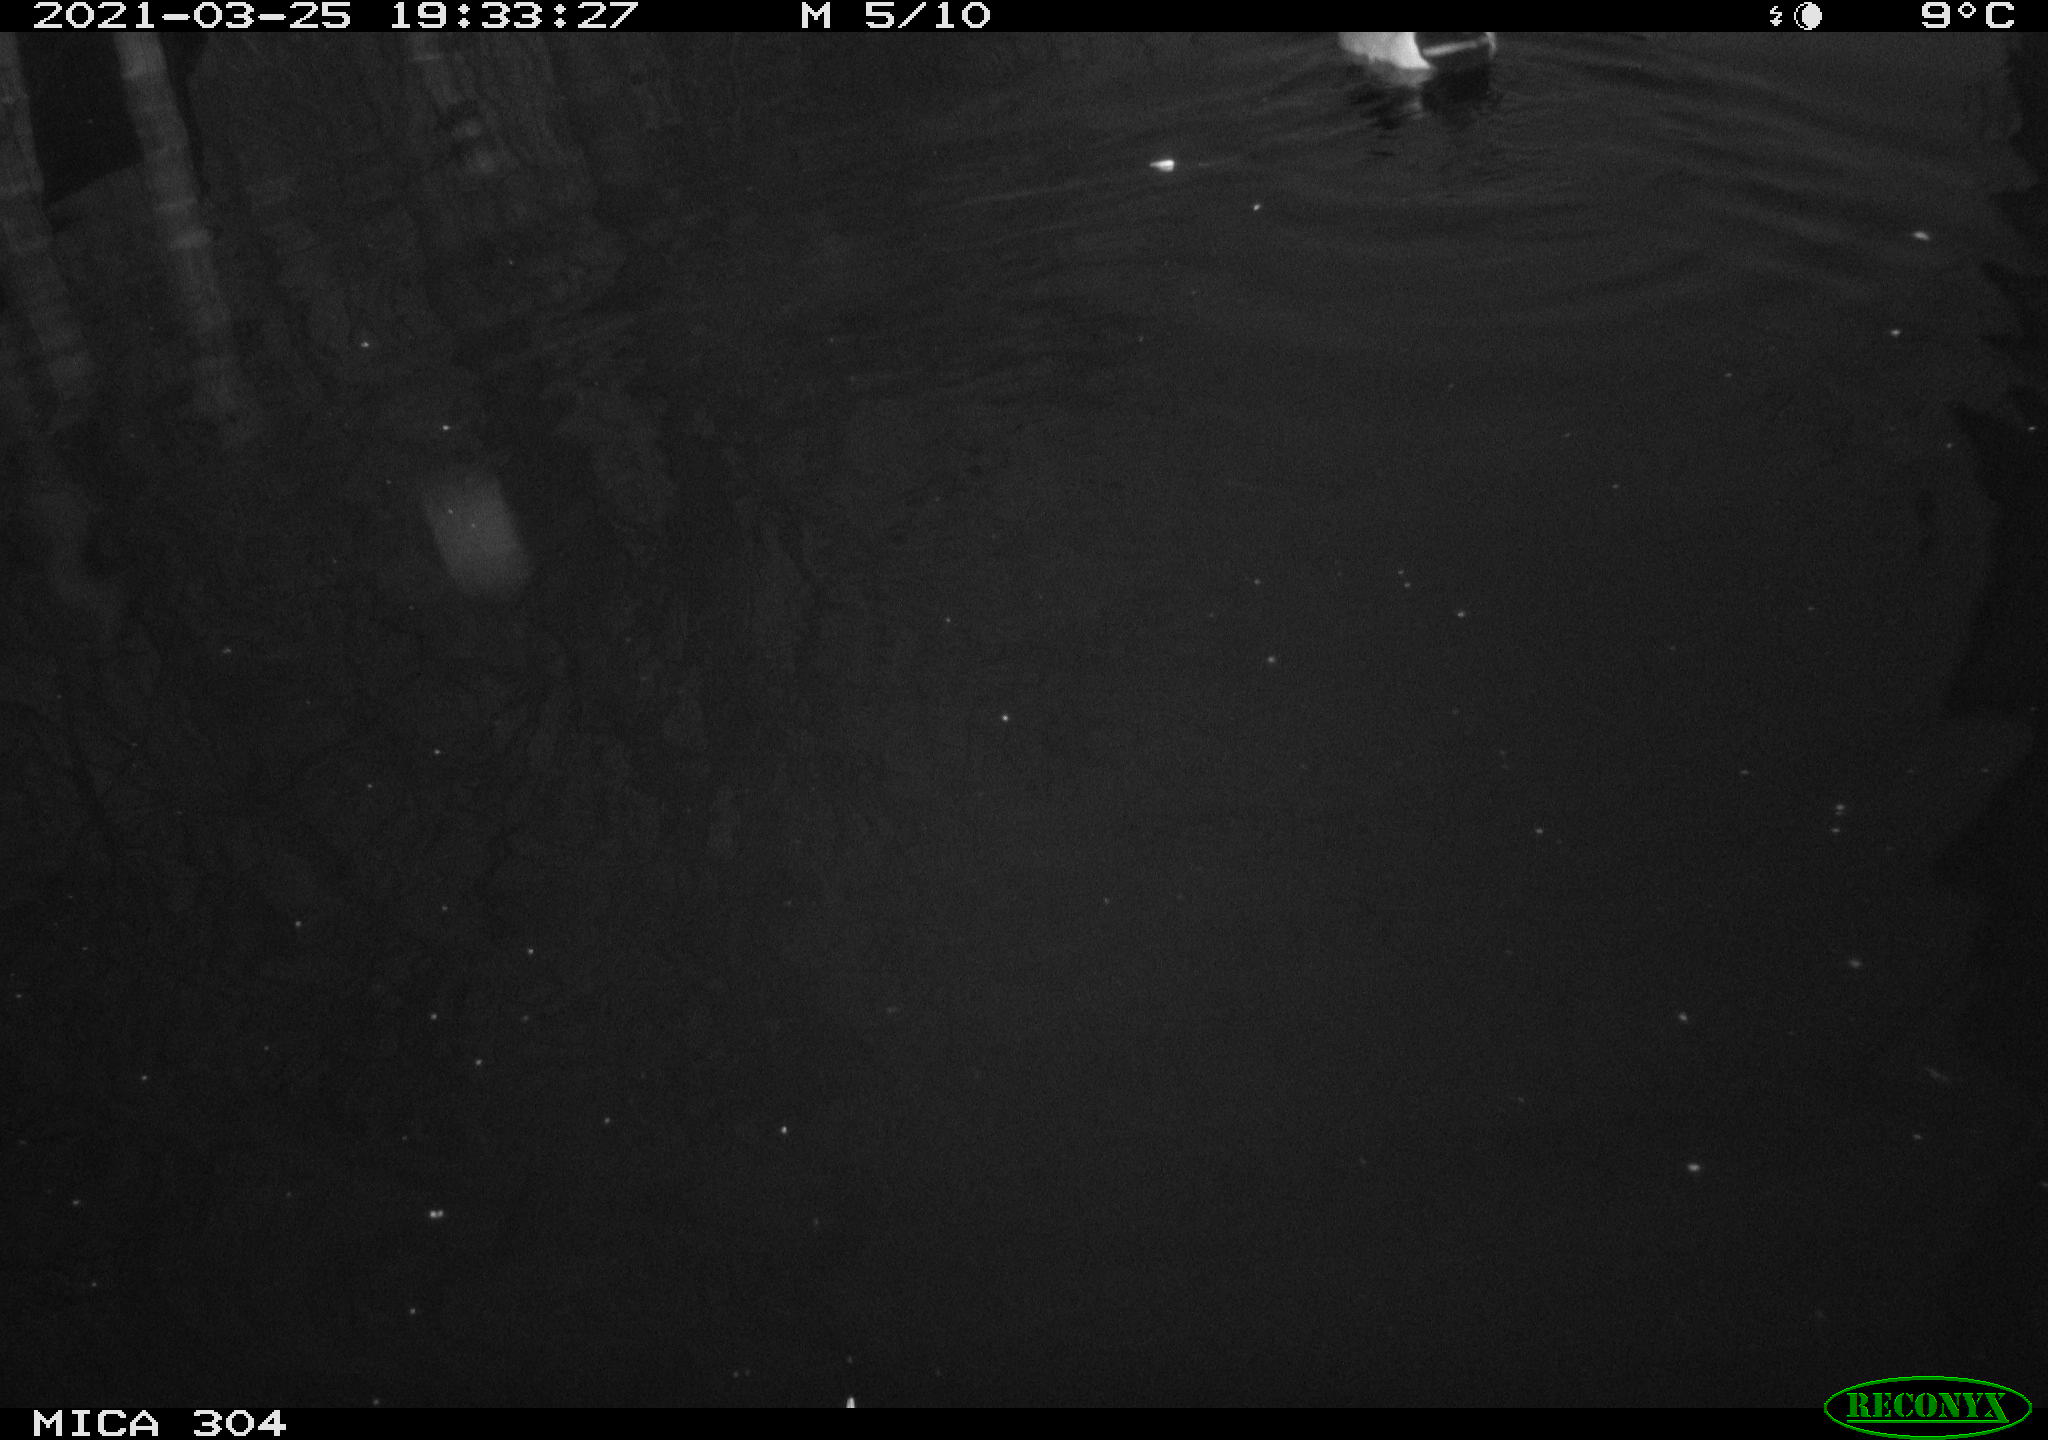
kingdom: Animalia
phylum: Chordata
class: Aves
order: Anseriformes
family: Anatidae
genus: Anas
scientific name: Anas platyrhynchos
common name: Mallard
